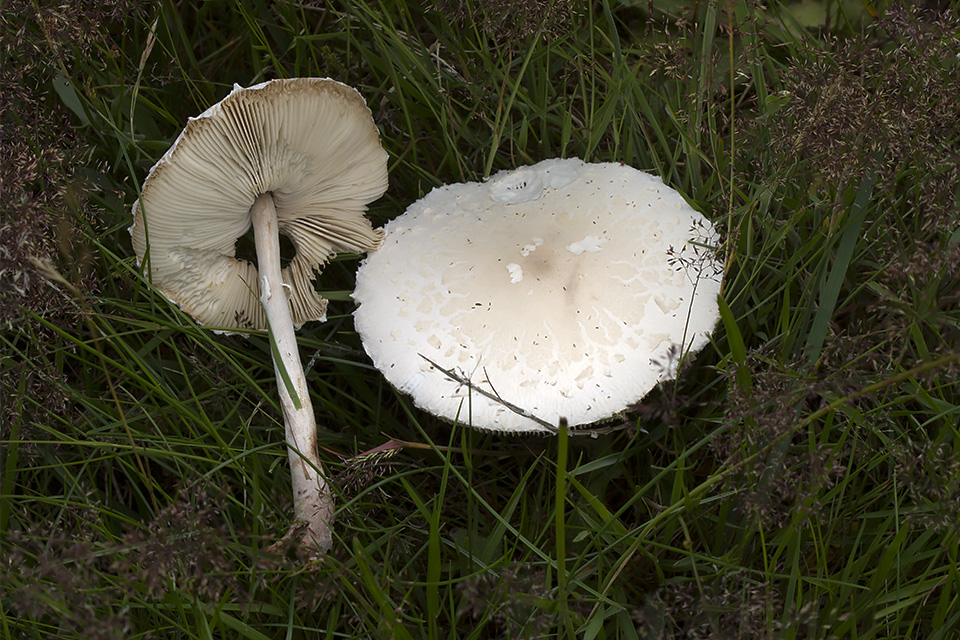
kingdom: Fungi
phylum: Basidiomycota
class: Agaricomycetes
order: Agaricales
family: Agaricaceae
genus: Macrolepiota
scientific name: Macrolepiota excoriata
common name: mark-kæmpeparasolhat
